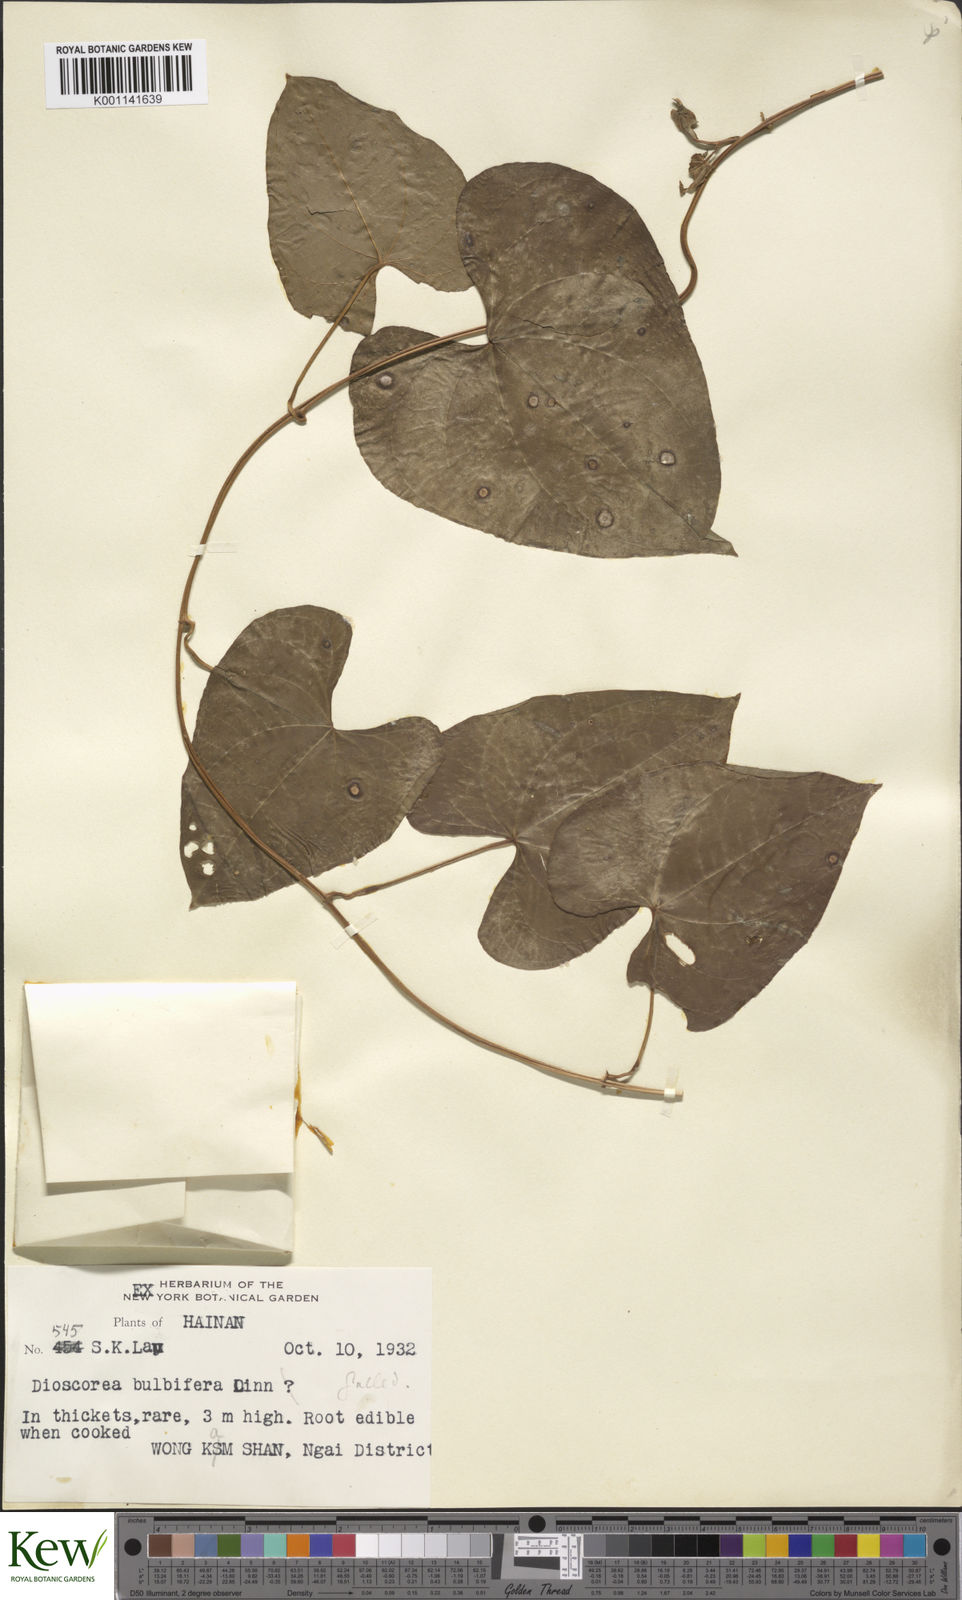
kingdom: Plantae
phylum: Tracheophyta
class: Liliopsida
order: Dioscoreales
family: Dioscoreaceae
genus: Dioscorea
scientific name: Dioscorea bulbifera
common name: Air yam
